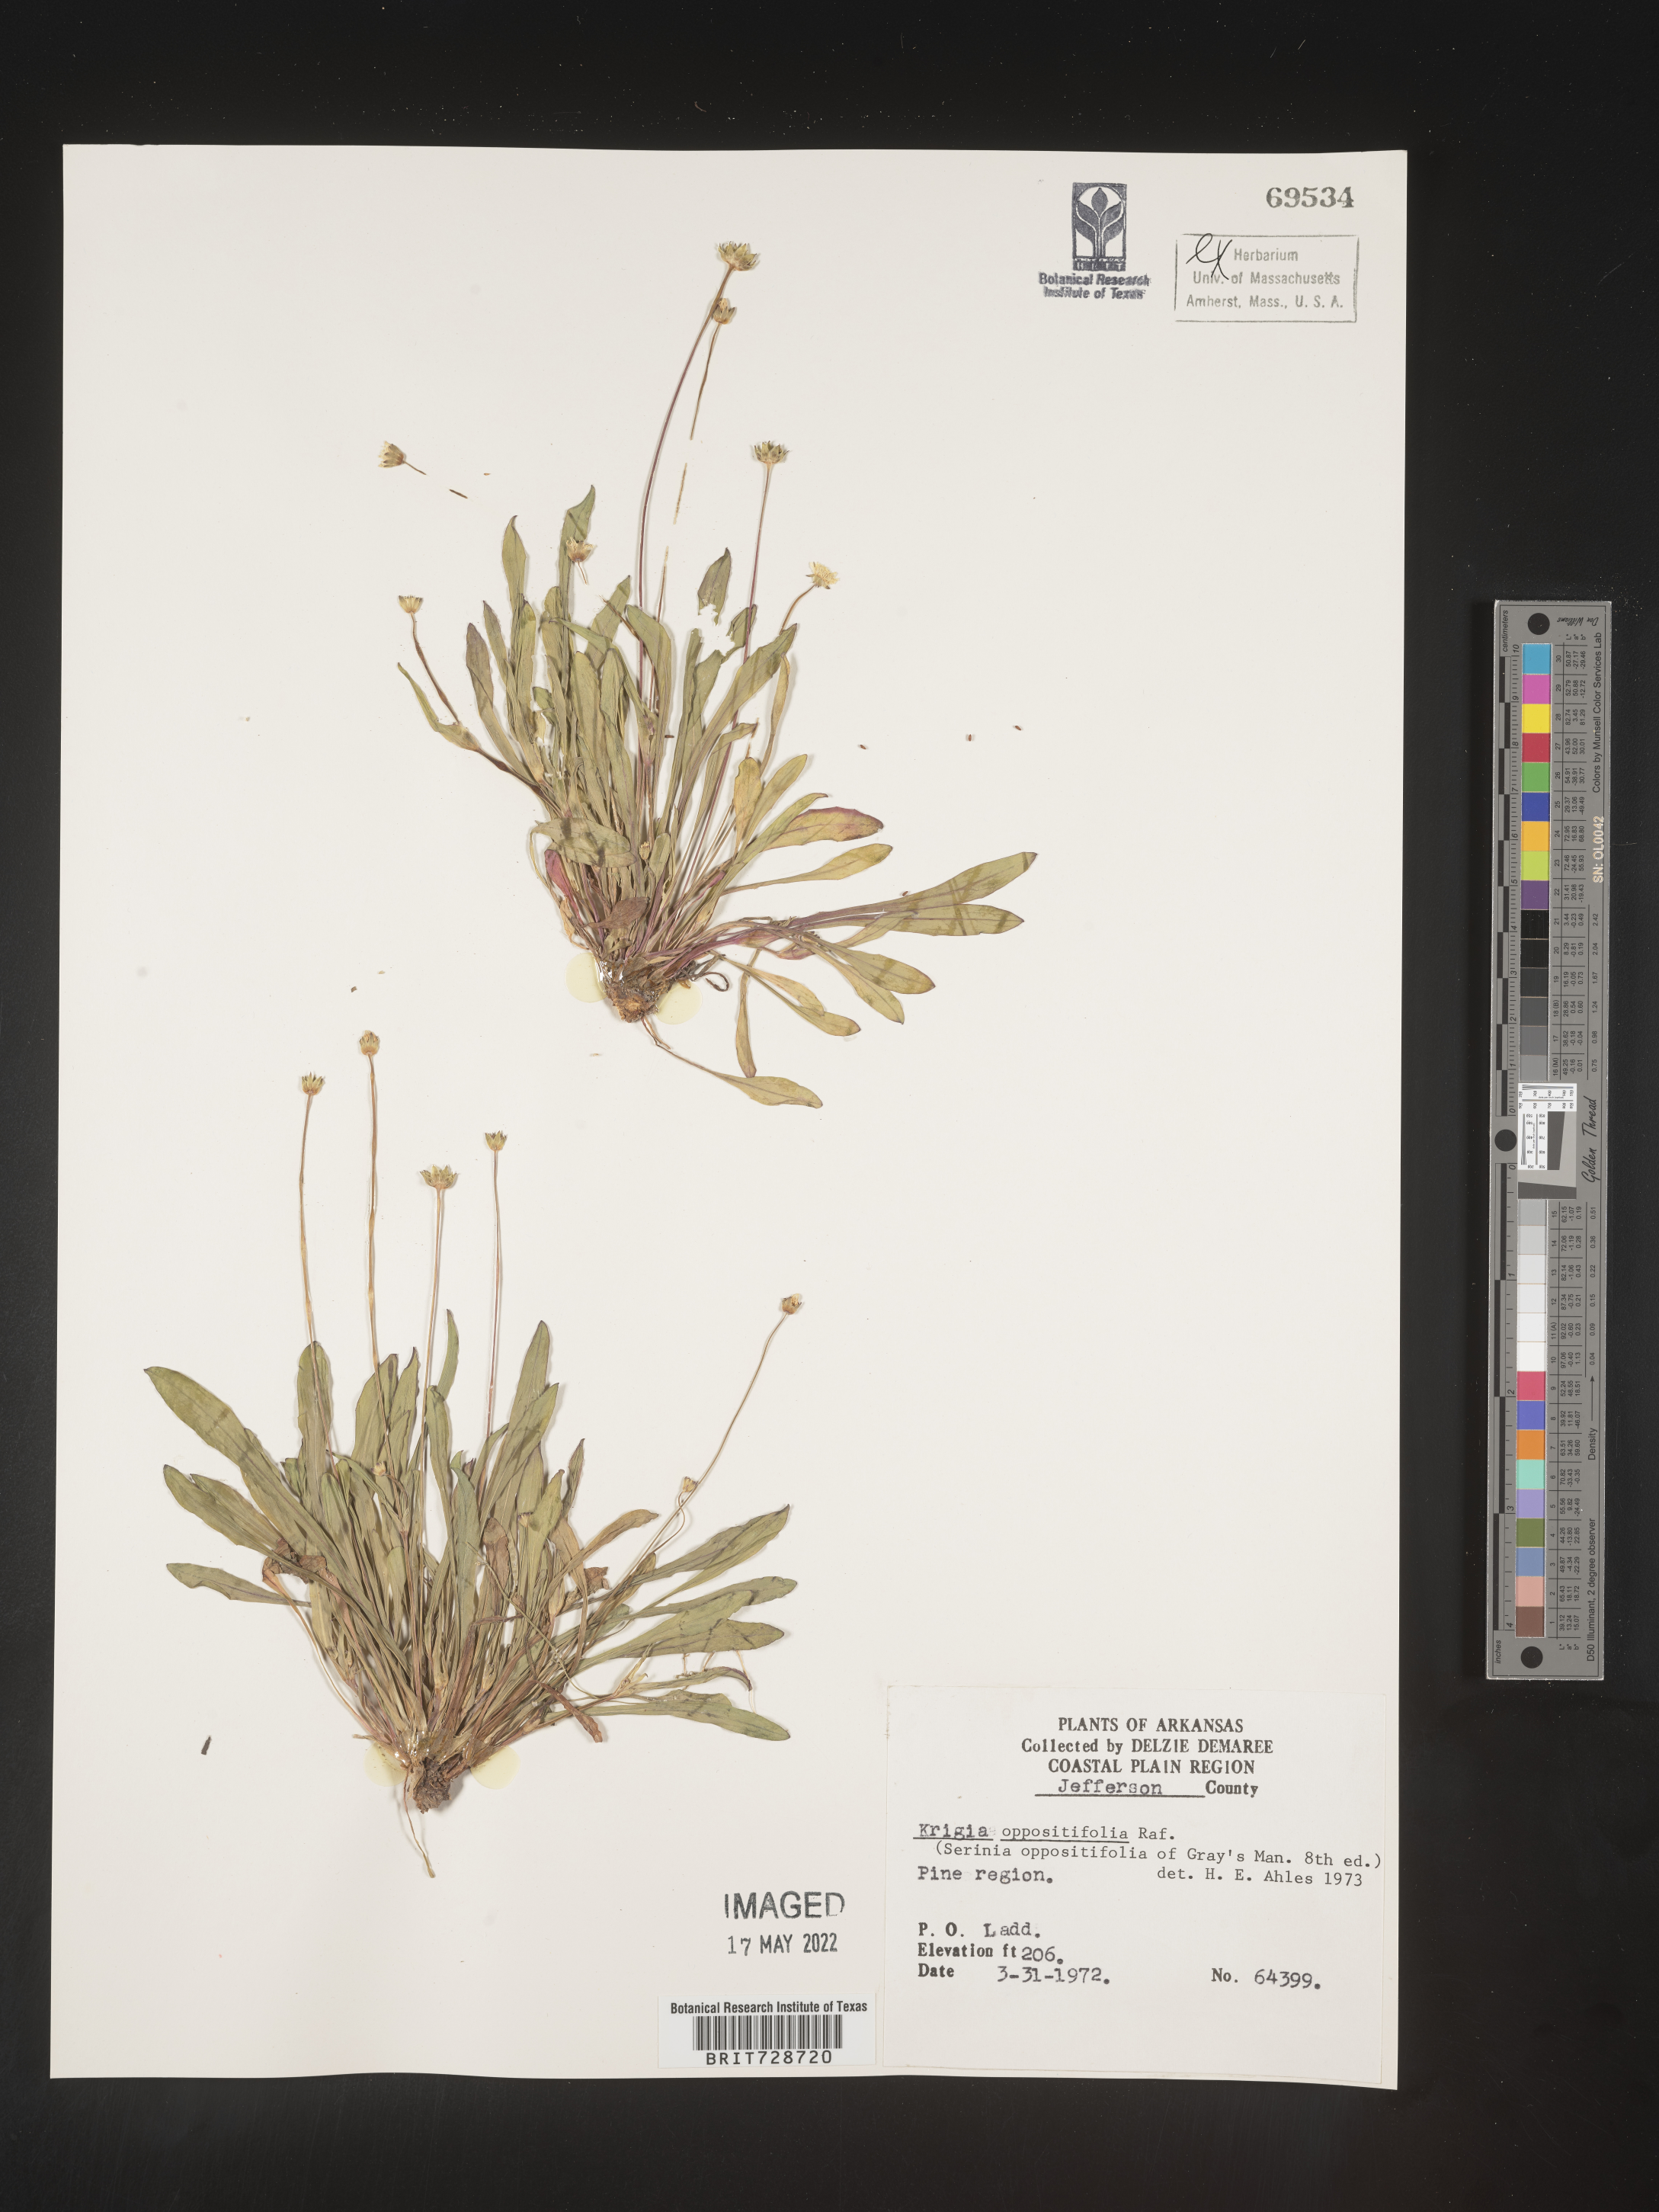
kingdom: Plantae
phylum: Tracheophyta
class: Magnoliopsida
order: Asterales
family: Asteraceae
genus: Krigia
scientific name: Krigia cespitosa
